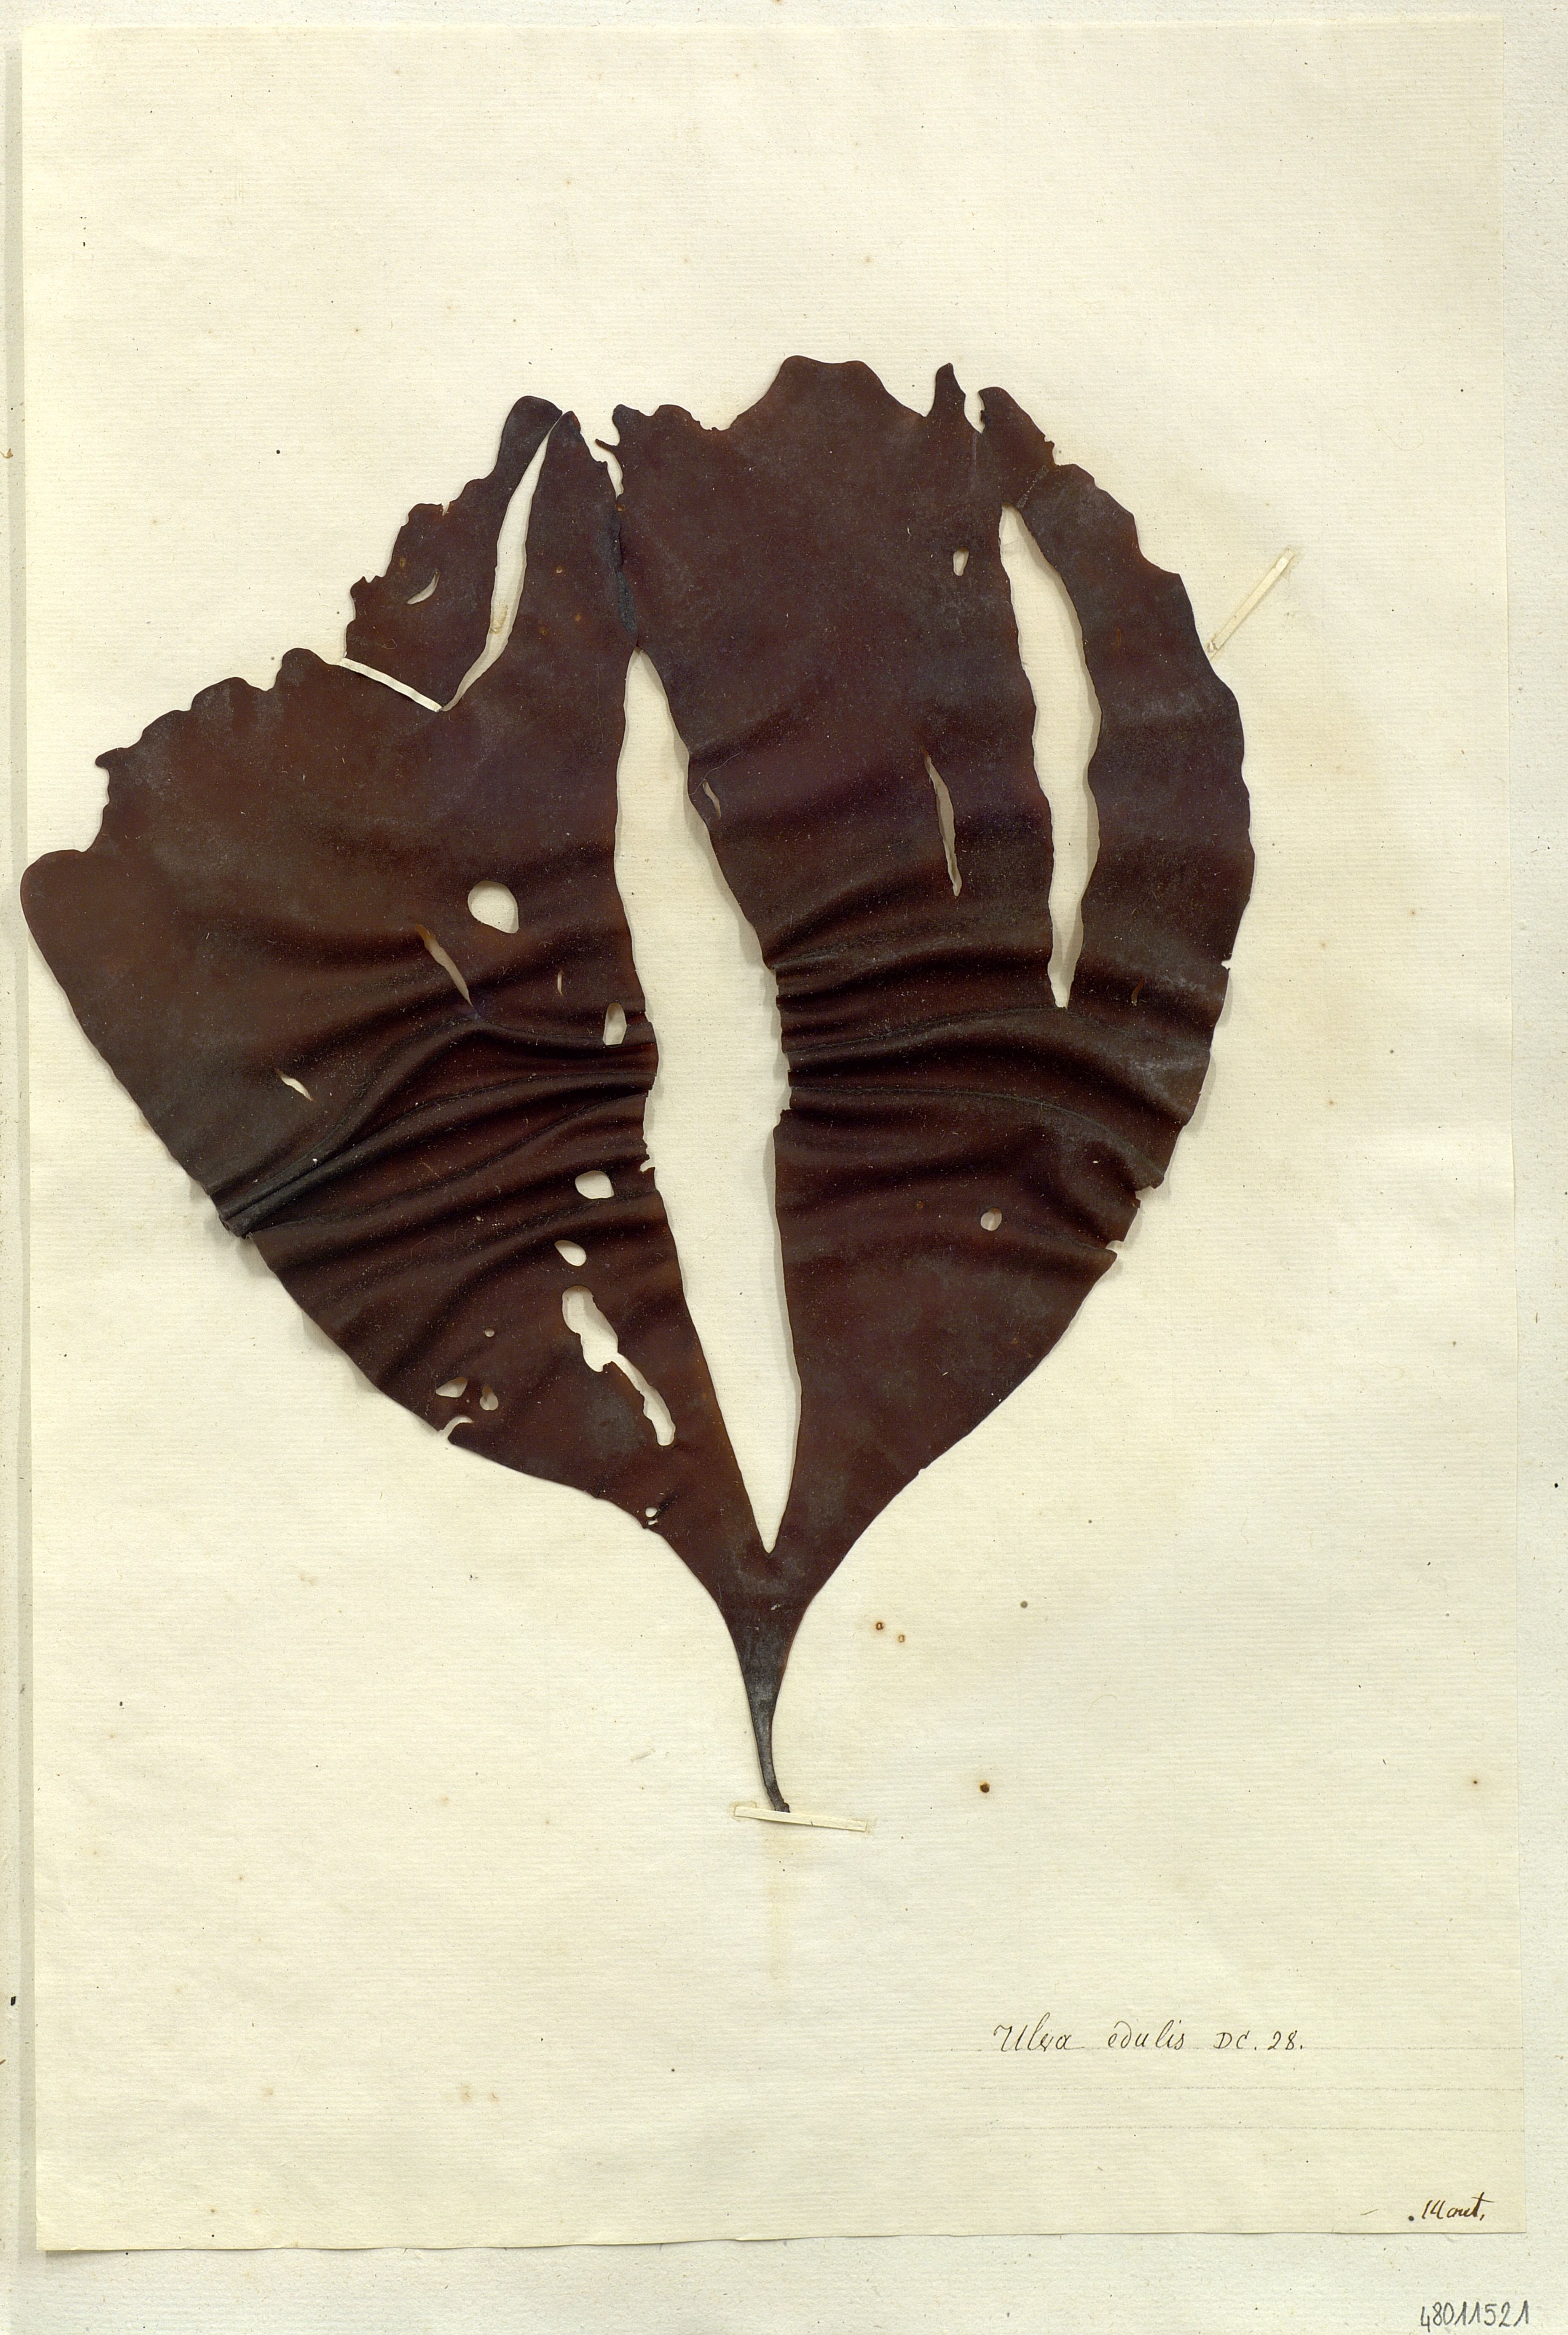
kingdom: Plantae
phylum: Chlorophyta
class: Ulvophyceae
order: Ulvales
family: Ulvaceae
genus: Ulva
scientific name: Ulva
